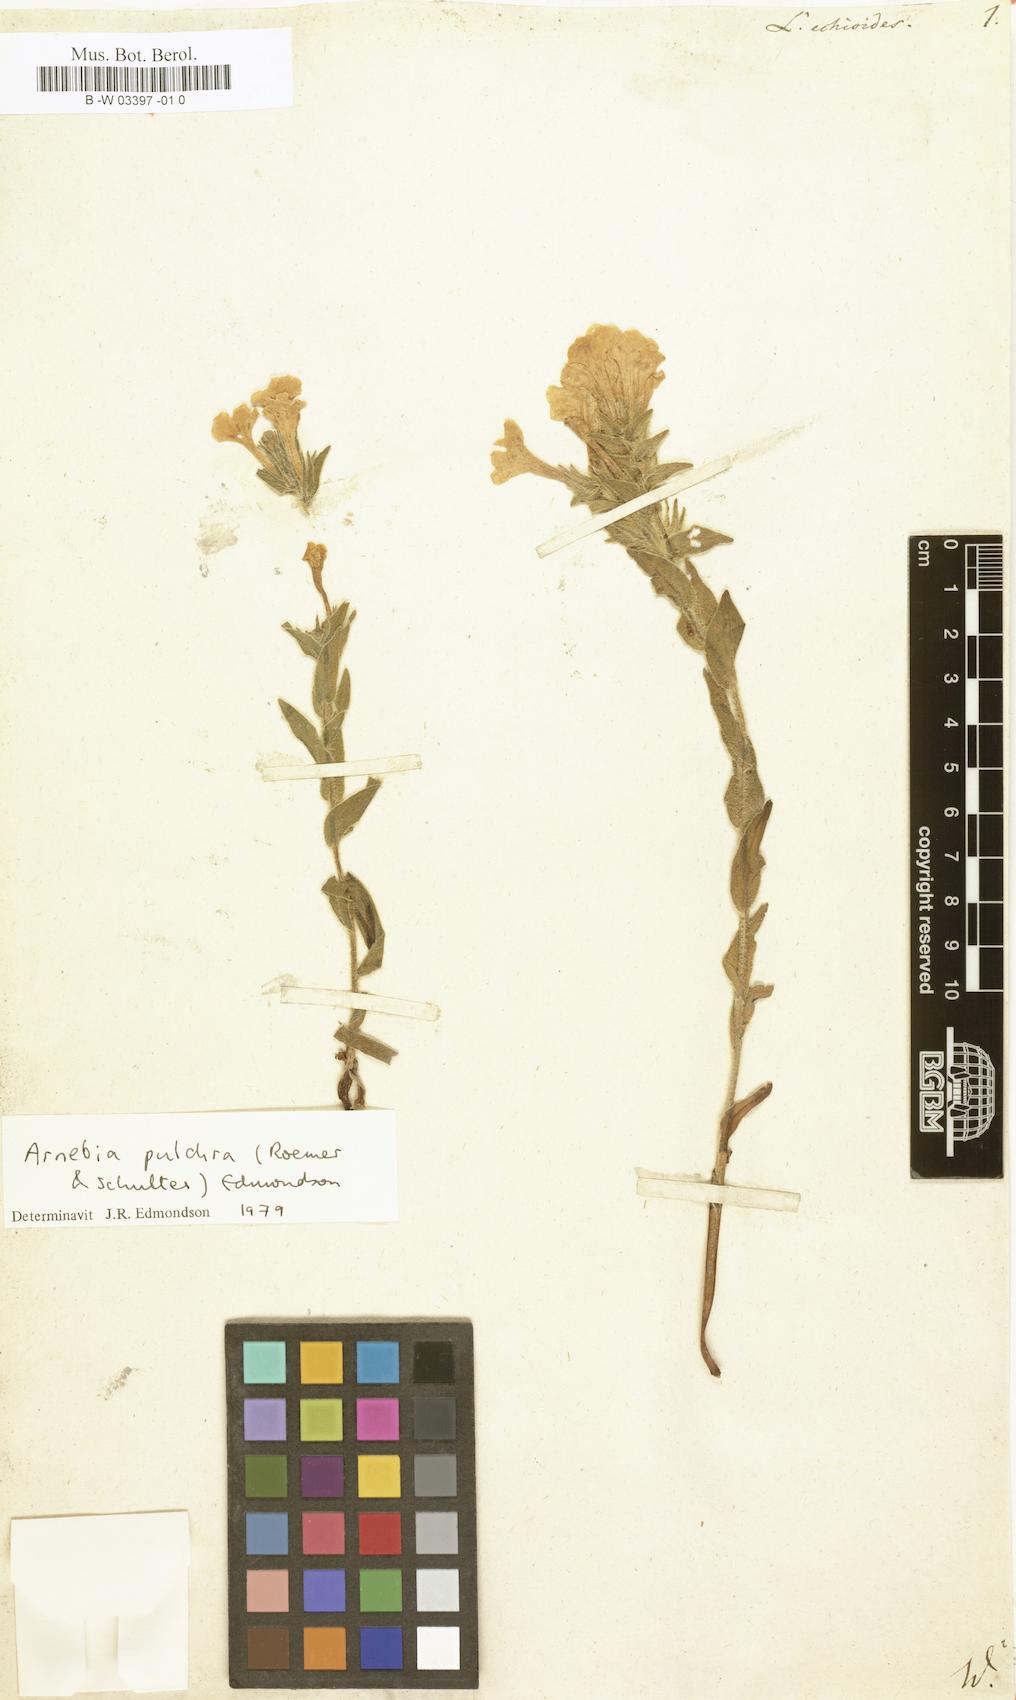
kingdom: Plantae
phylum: Tracheophyta
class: Magnoliopsida
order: Boraginales
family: Boraginaceae
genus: Nonea
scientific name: Nonea echioides
